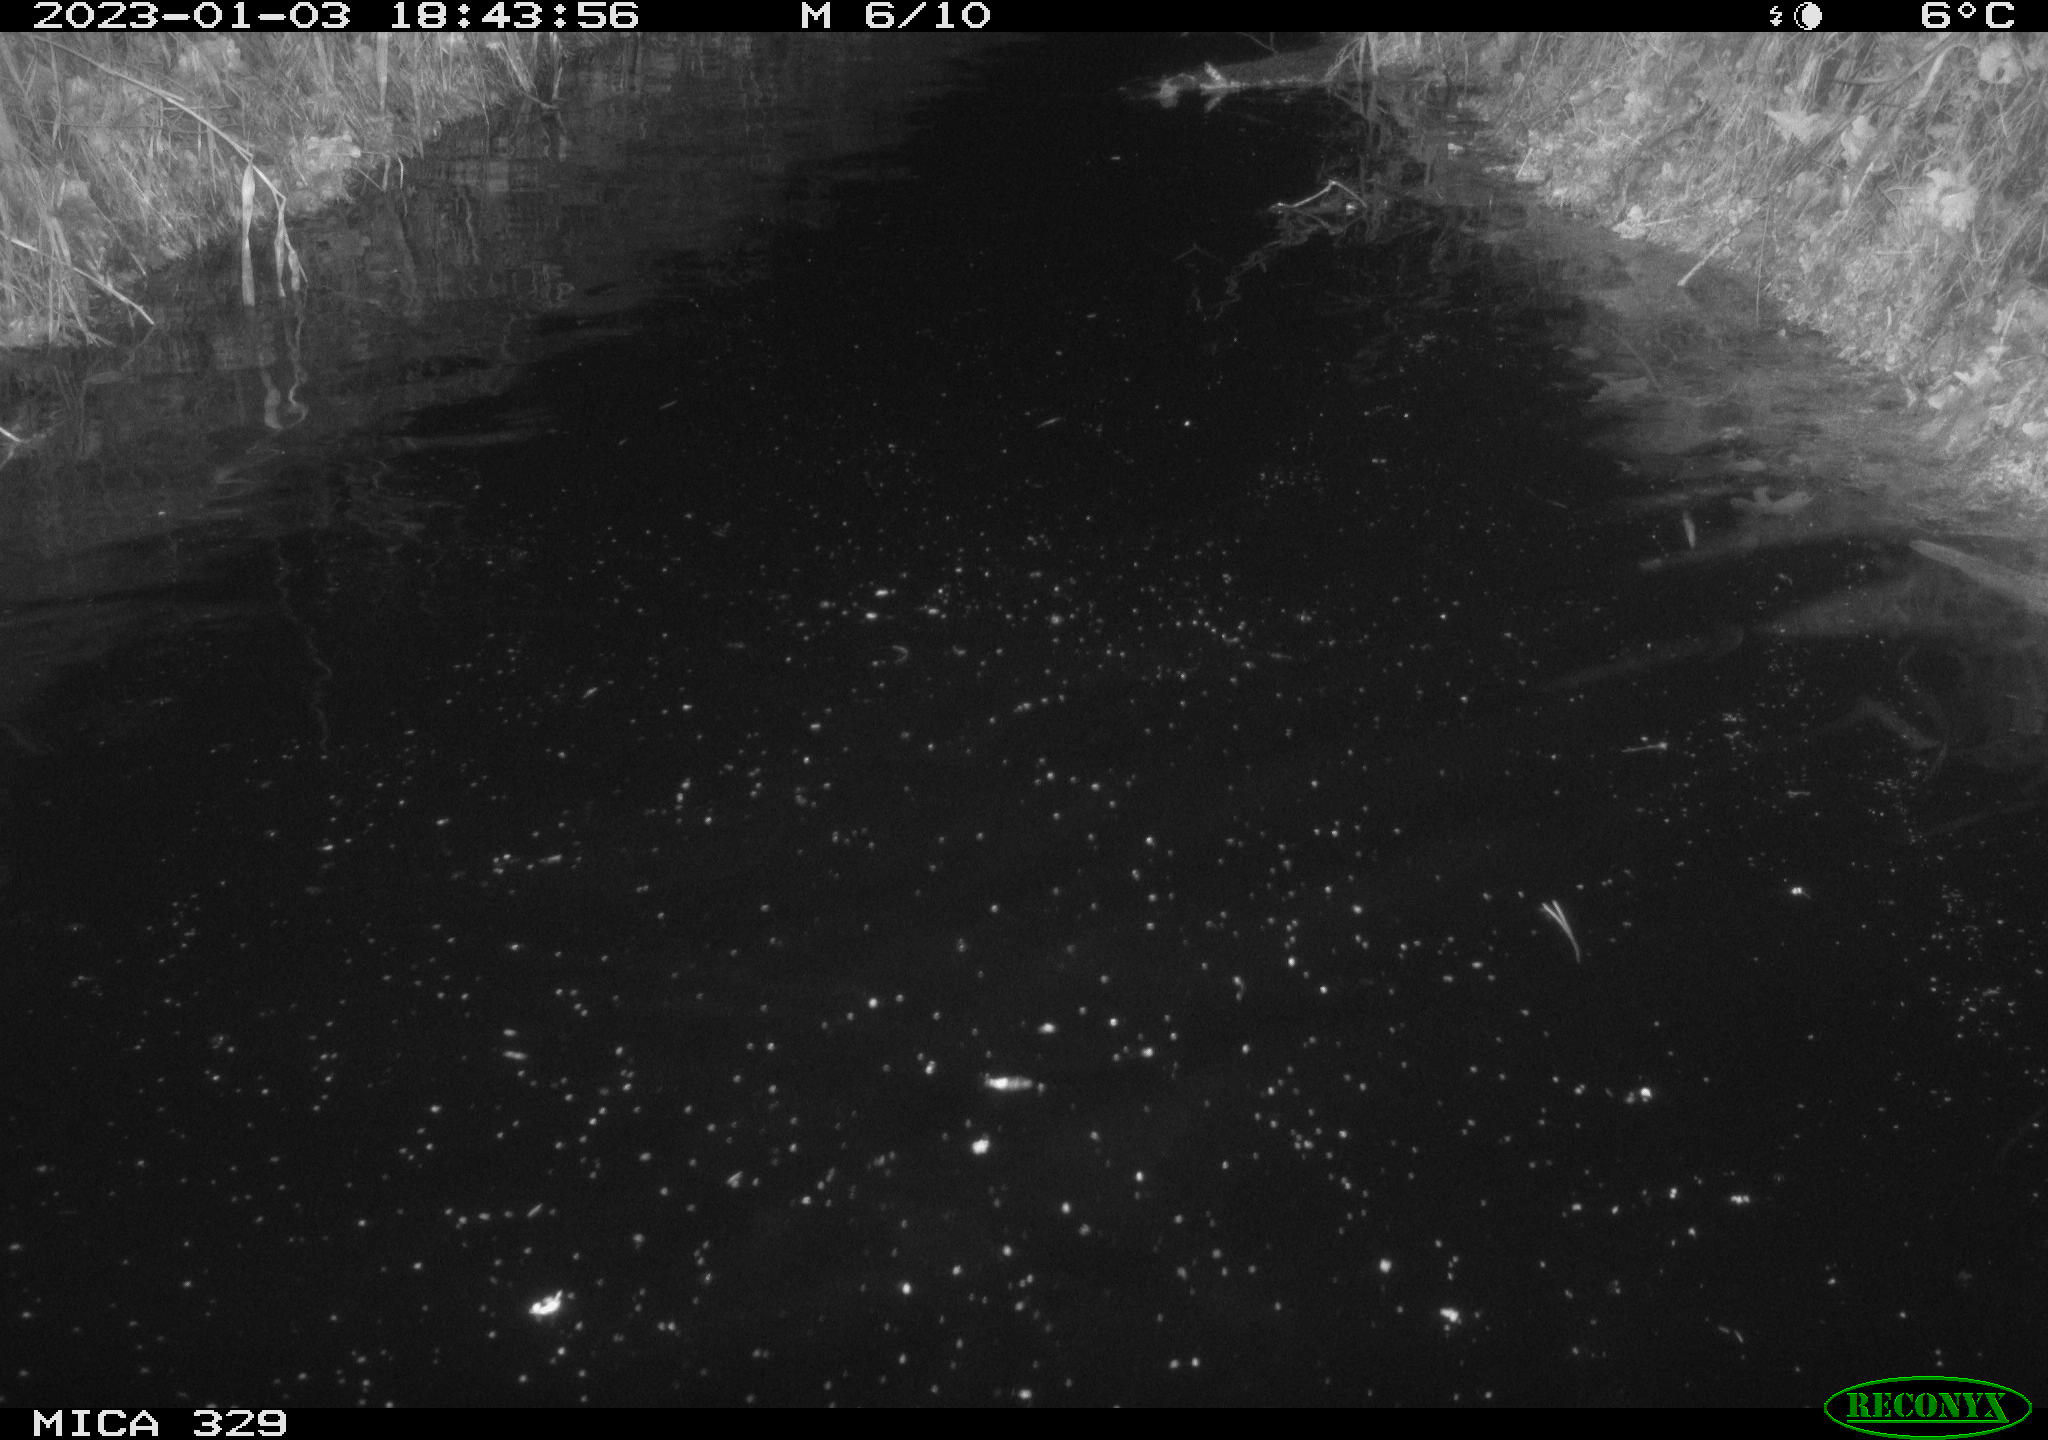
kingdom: Animalia
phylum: Chordata
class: Mammalia
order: Rodentia
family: Cricetidae
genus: Ondatra
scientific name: Ondatra zibethicus
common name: Muskrat
